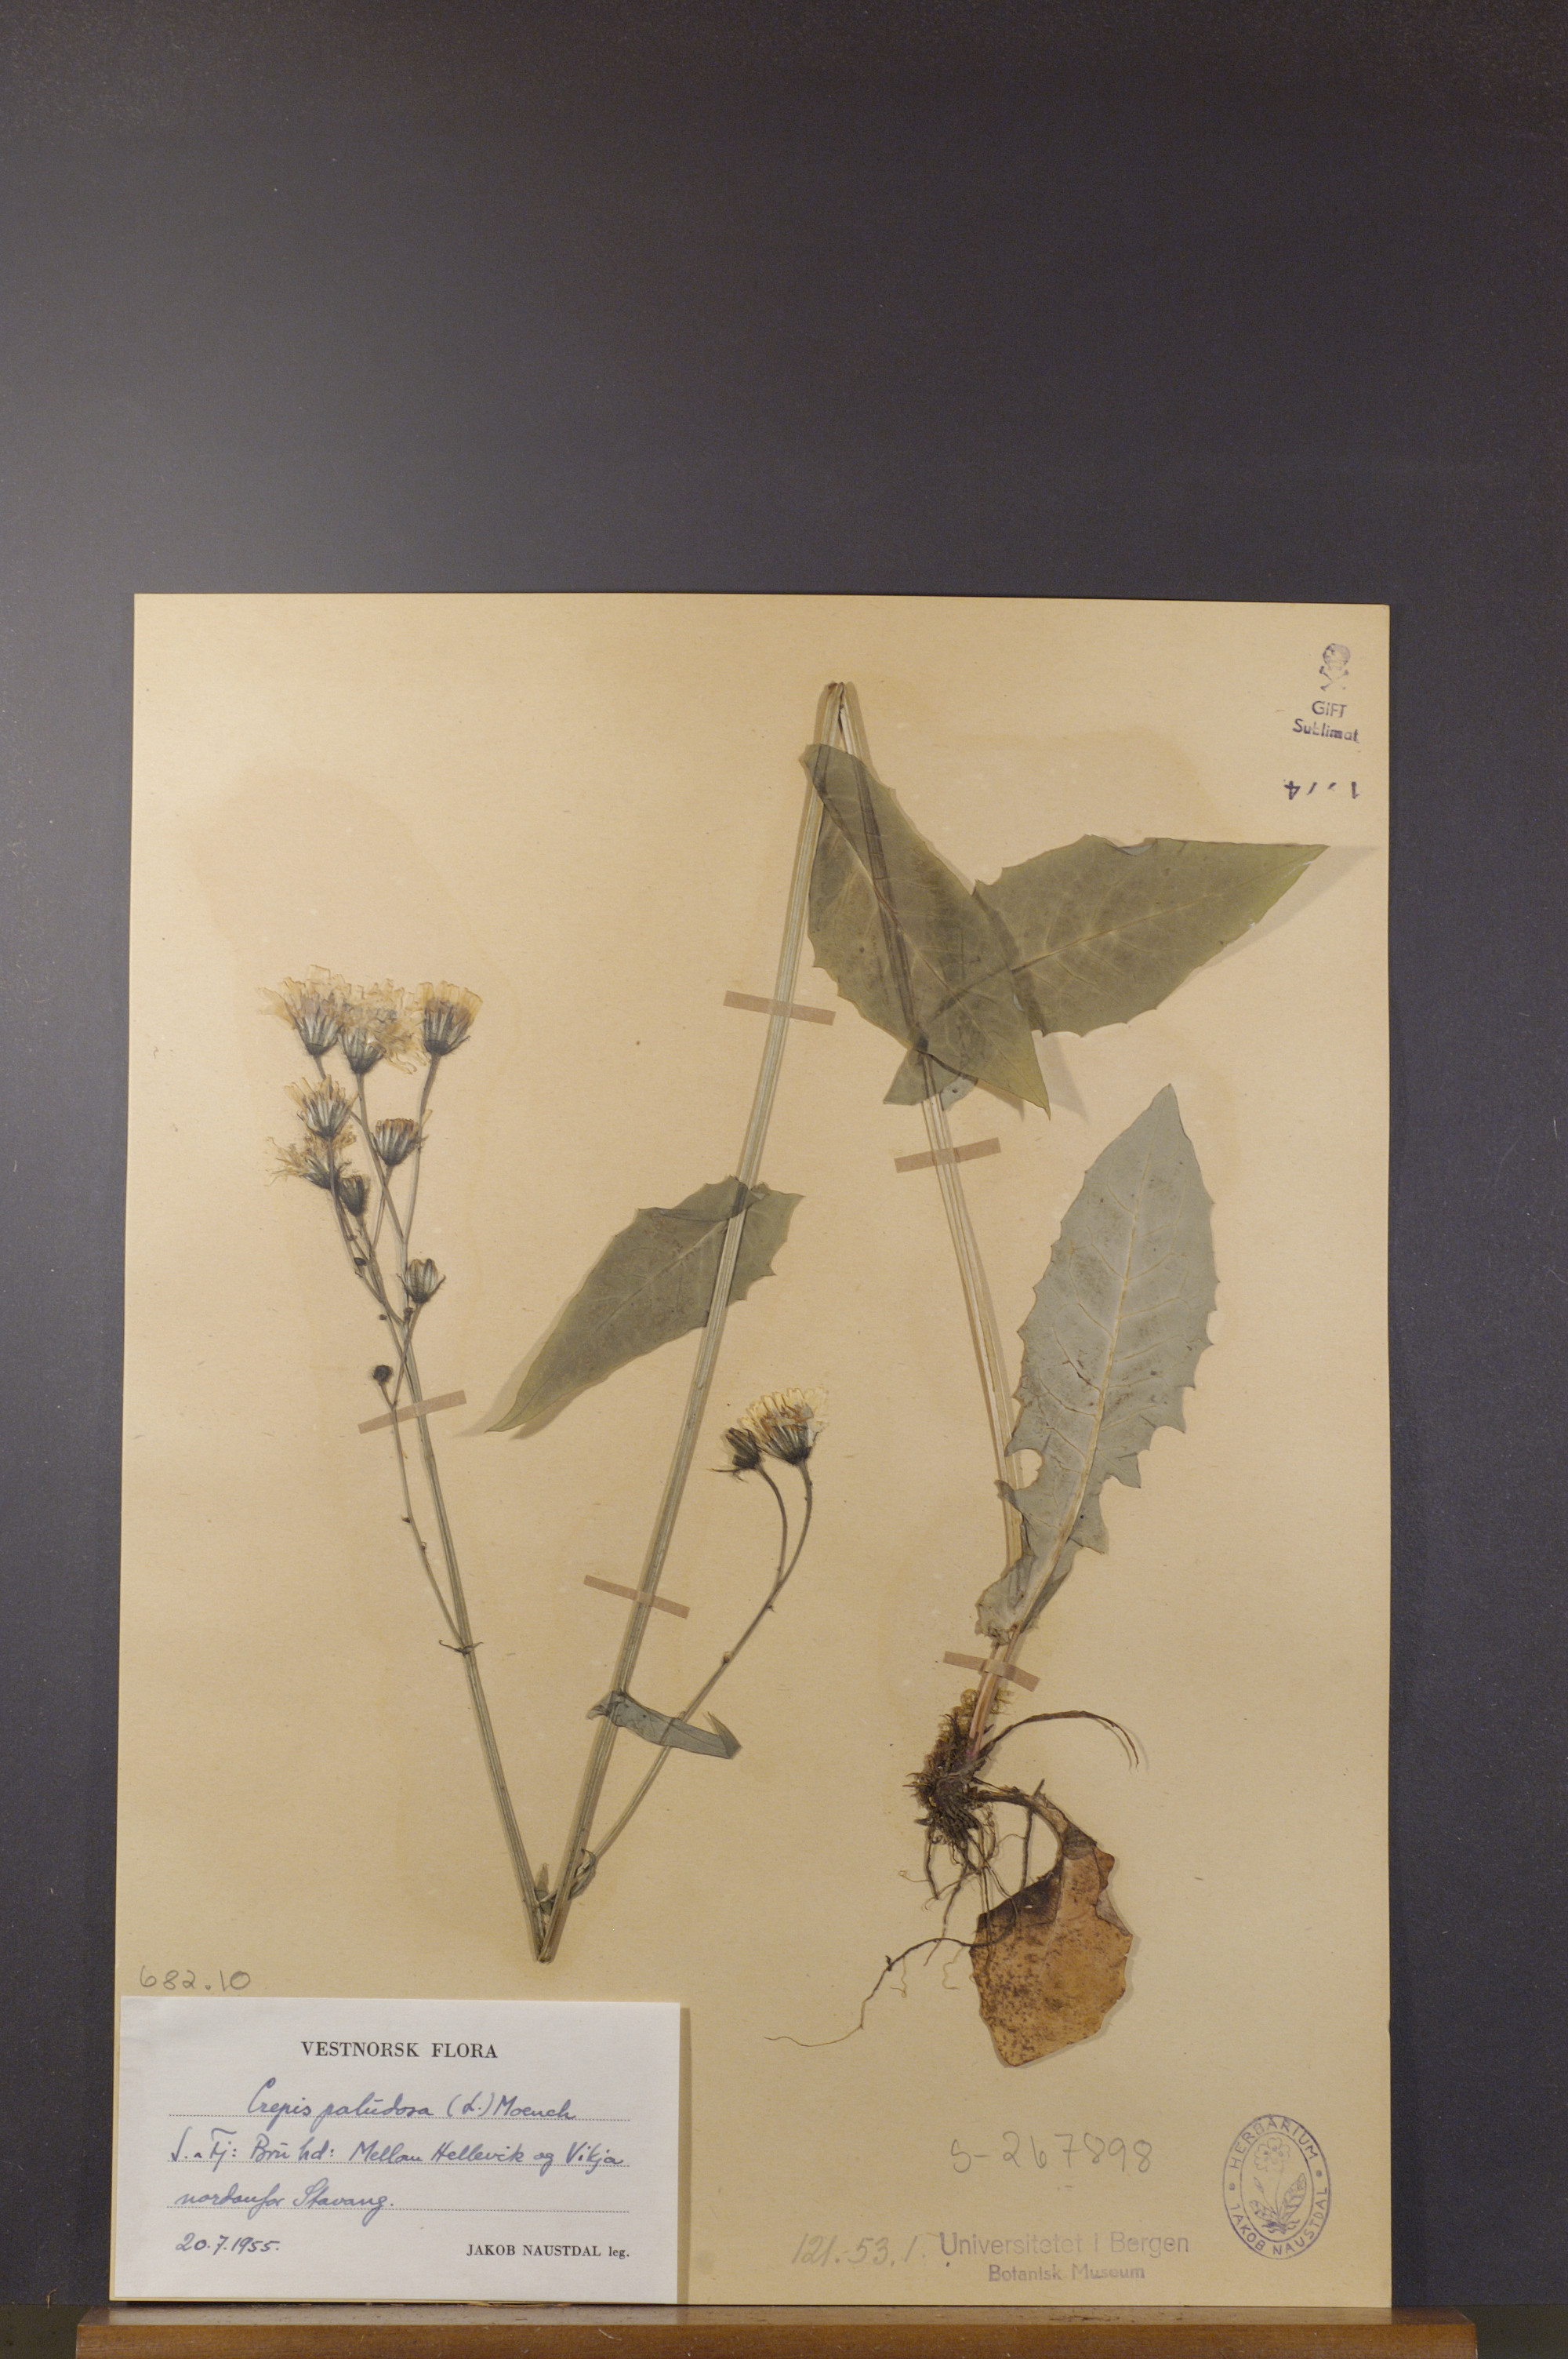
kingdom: Plantae
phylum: Tracheophyta
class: Magnoliopsida
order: Asterales
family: Asteraceae
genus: Crepis
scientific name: Crepis paludosa
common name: Marsh hawk's-beard
